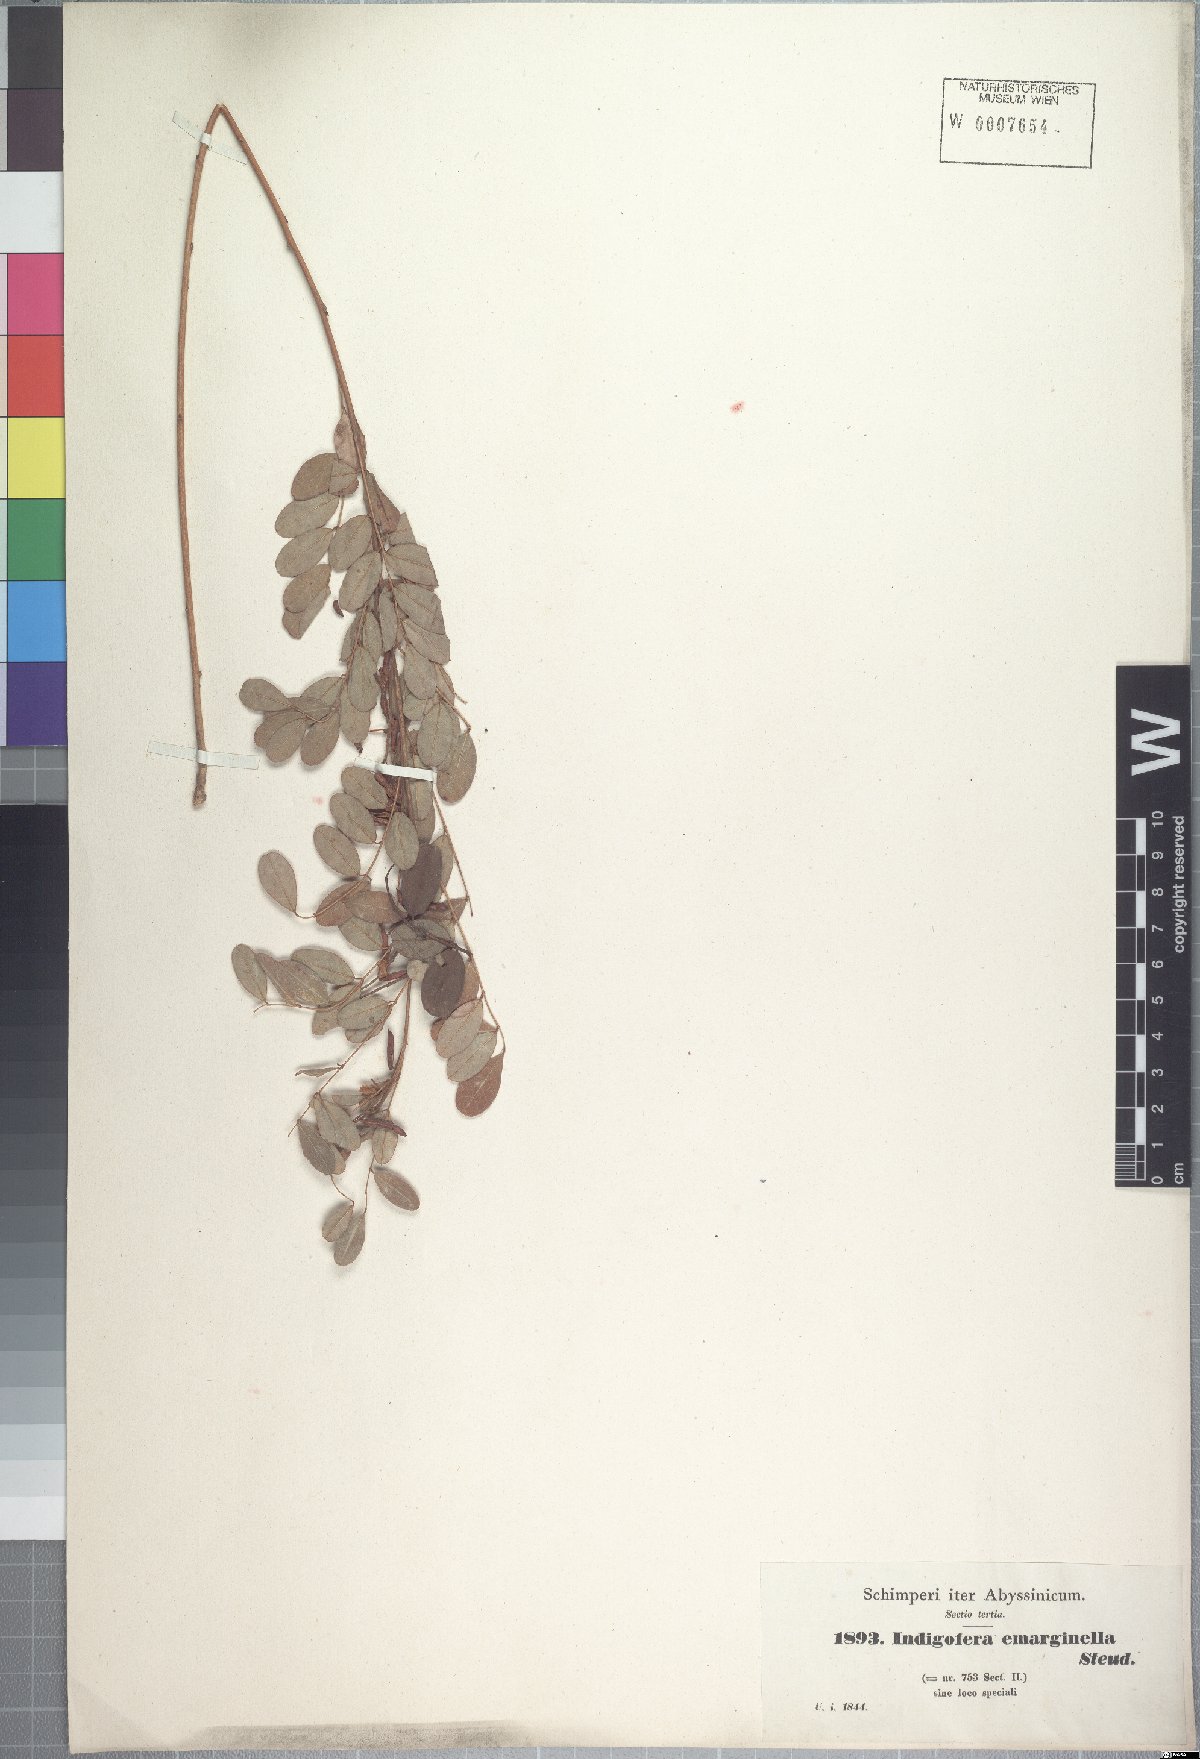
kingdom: Plantae
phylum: Tracheophyta
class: Magnoliopsida
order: Fabales
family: Fabaceae
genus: Indigofera
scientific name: Indigofera emarginella
